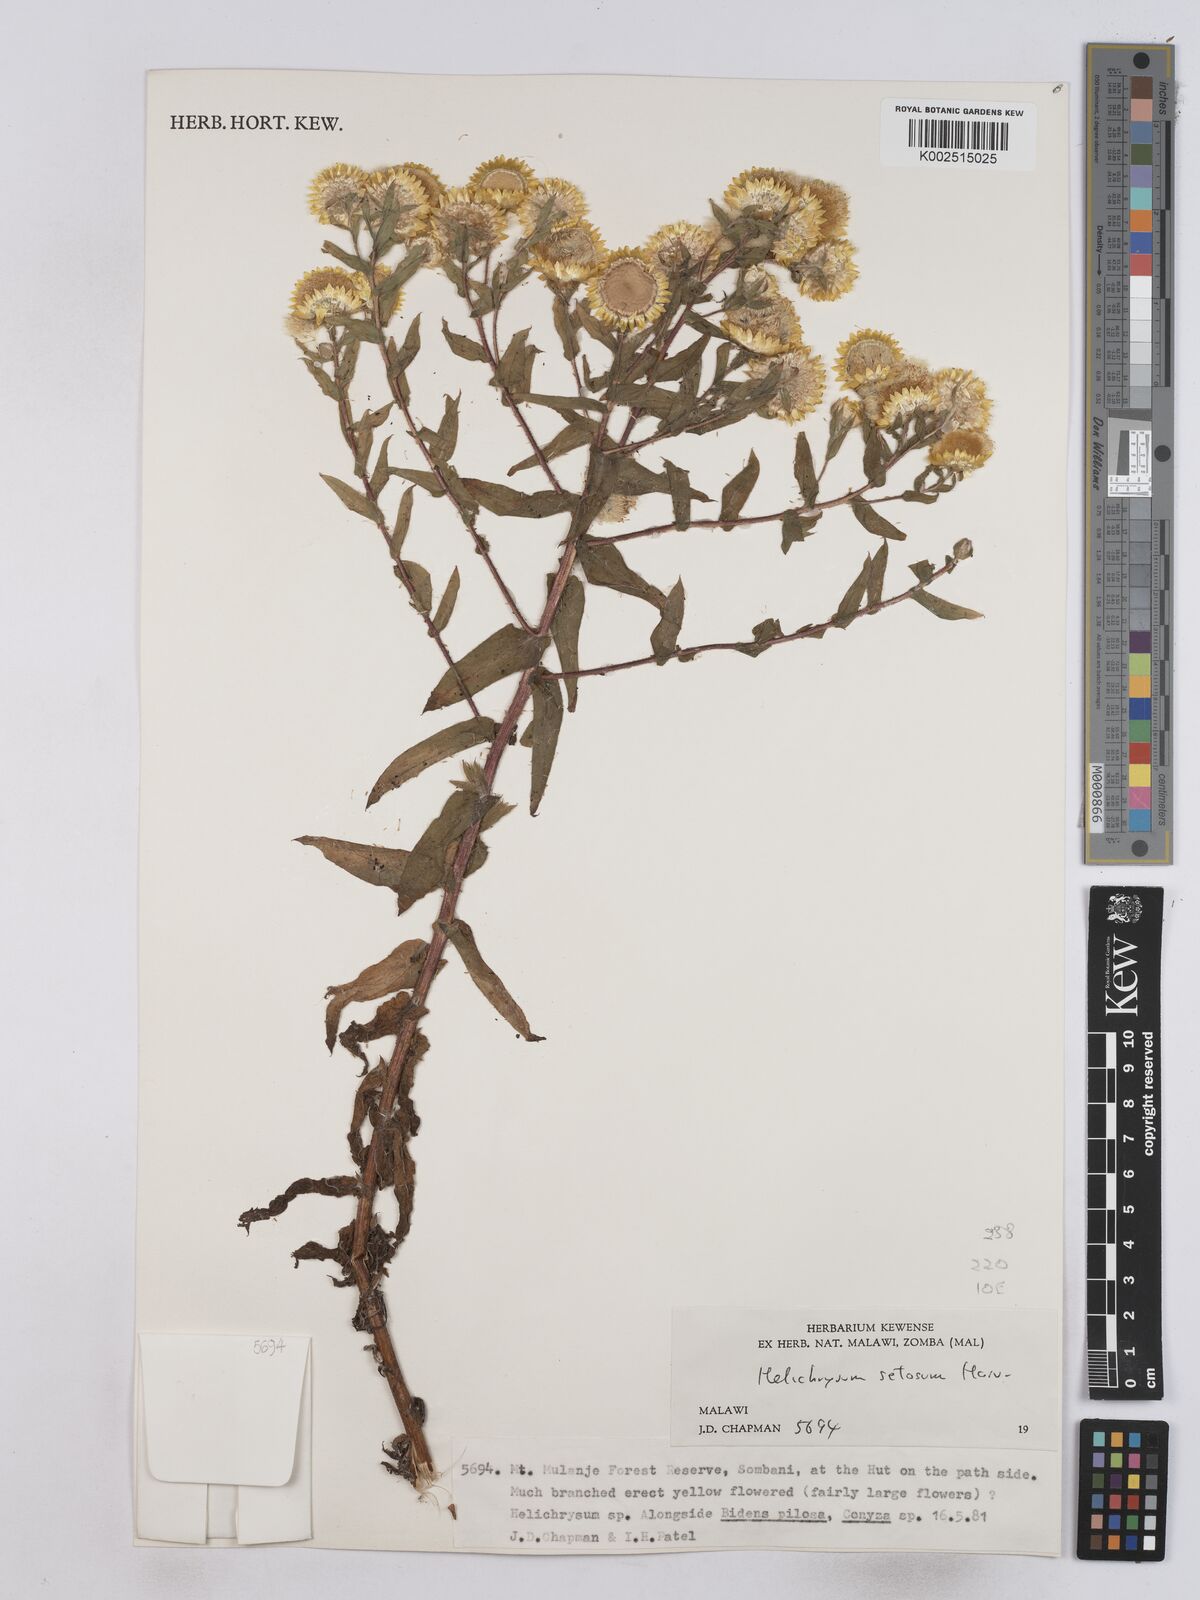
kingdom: Plantae
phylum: Tracheophyta
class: Magnoliopsida
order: Asterales
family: Asteraceae
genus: Helichrysum
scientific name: Helichrysum setosum
